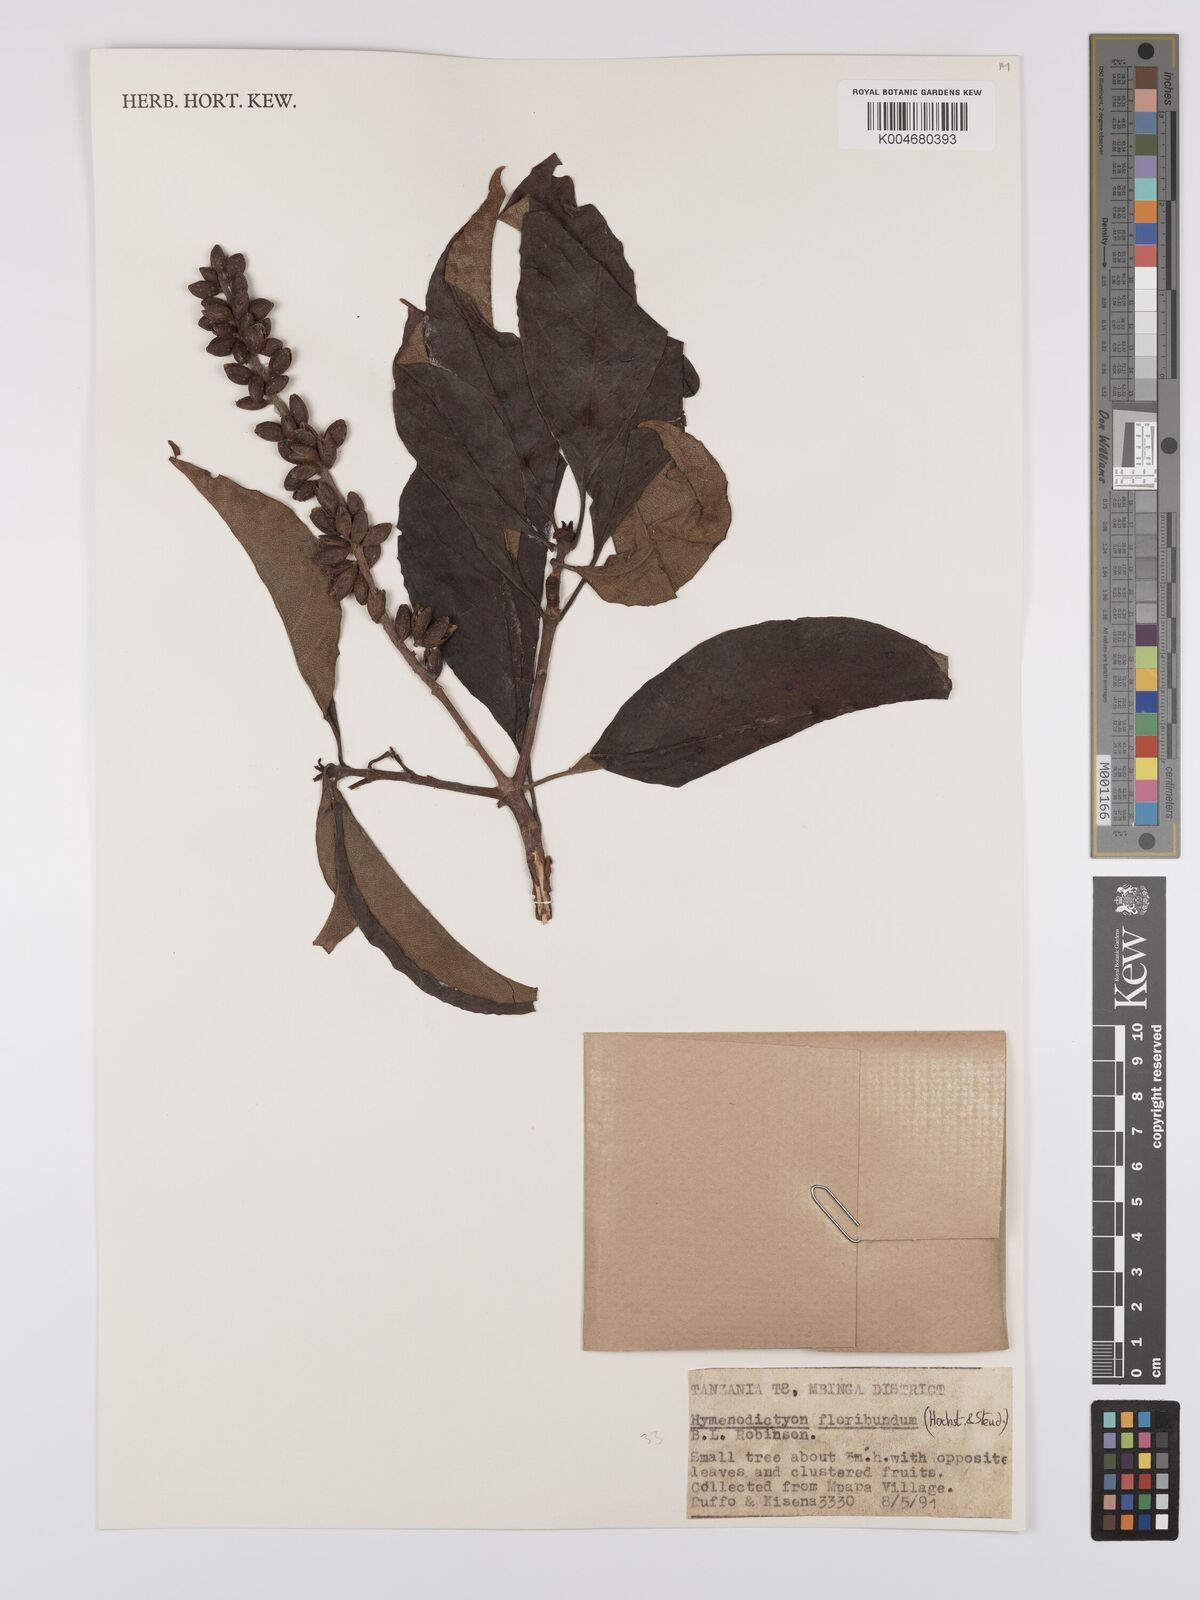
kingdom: Plantae
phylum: Tracheophyta
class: Magnoliopsida
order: Gentianales
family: Rubiaceae
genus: Hymenodictyon
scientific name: Hymenodictyon floribundum
